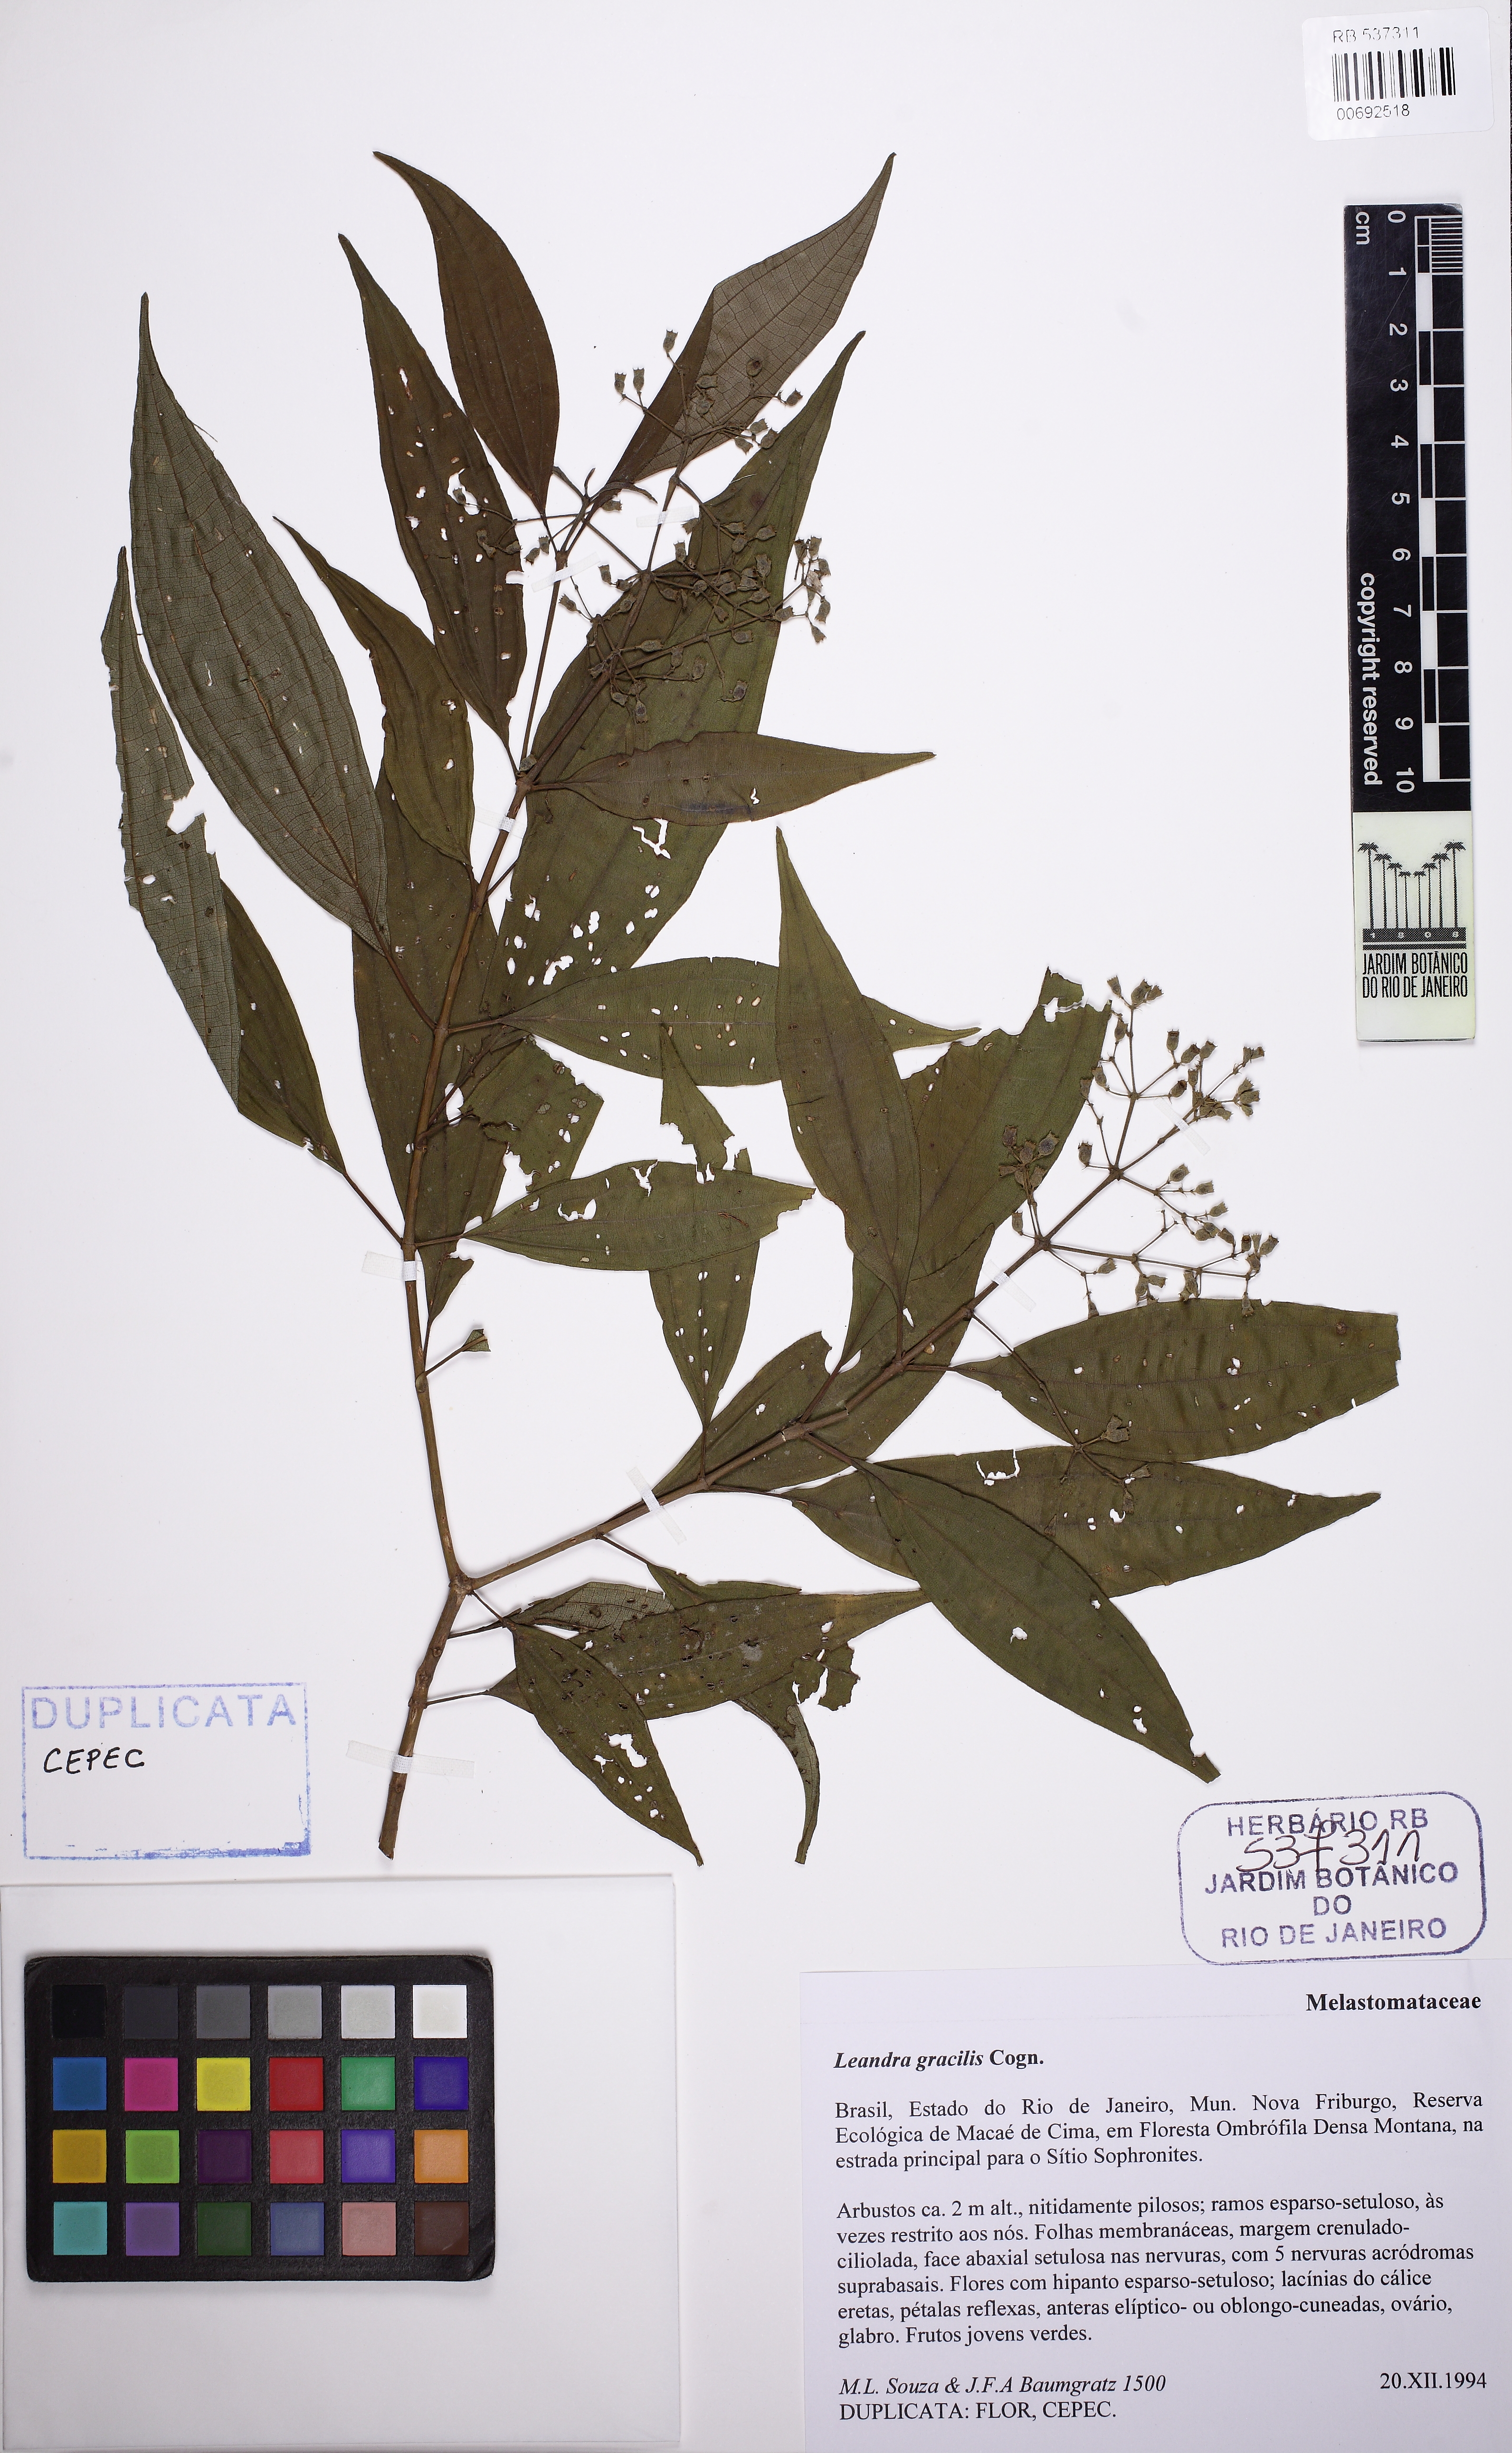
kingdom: Plantae
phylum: Tracheophyta
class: Magnoliopsida
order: Myrtales
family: Melastomataceae
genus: Miconia
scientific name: Miconia leagracilis
